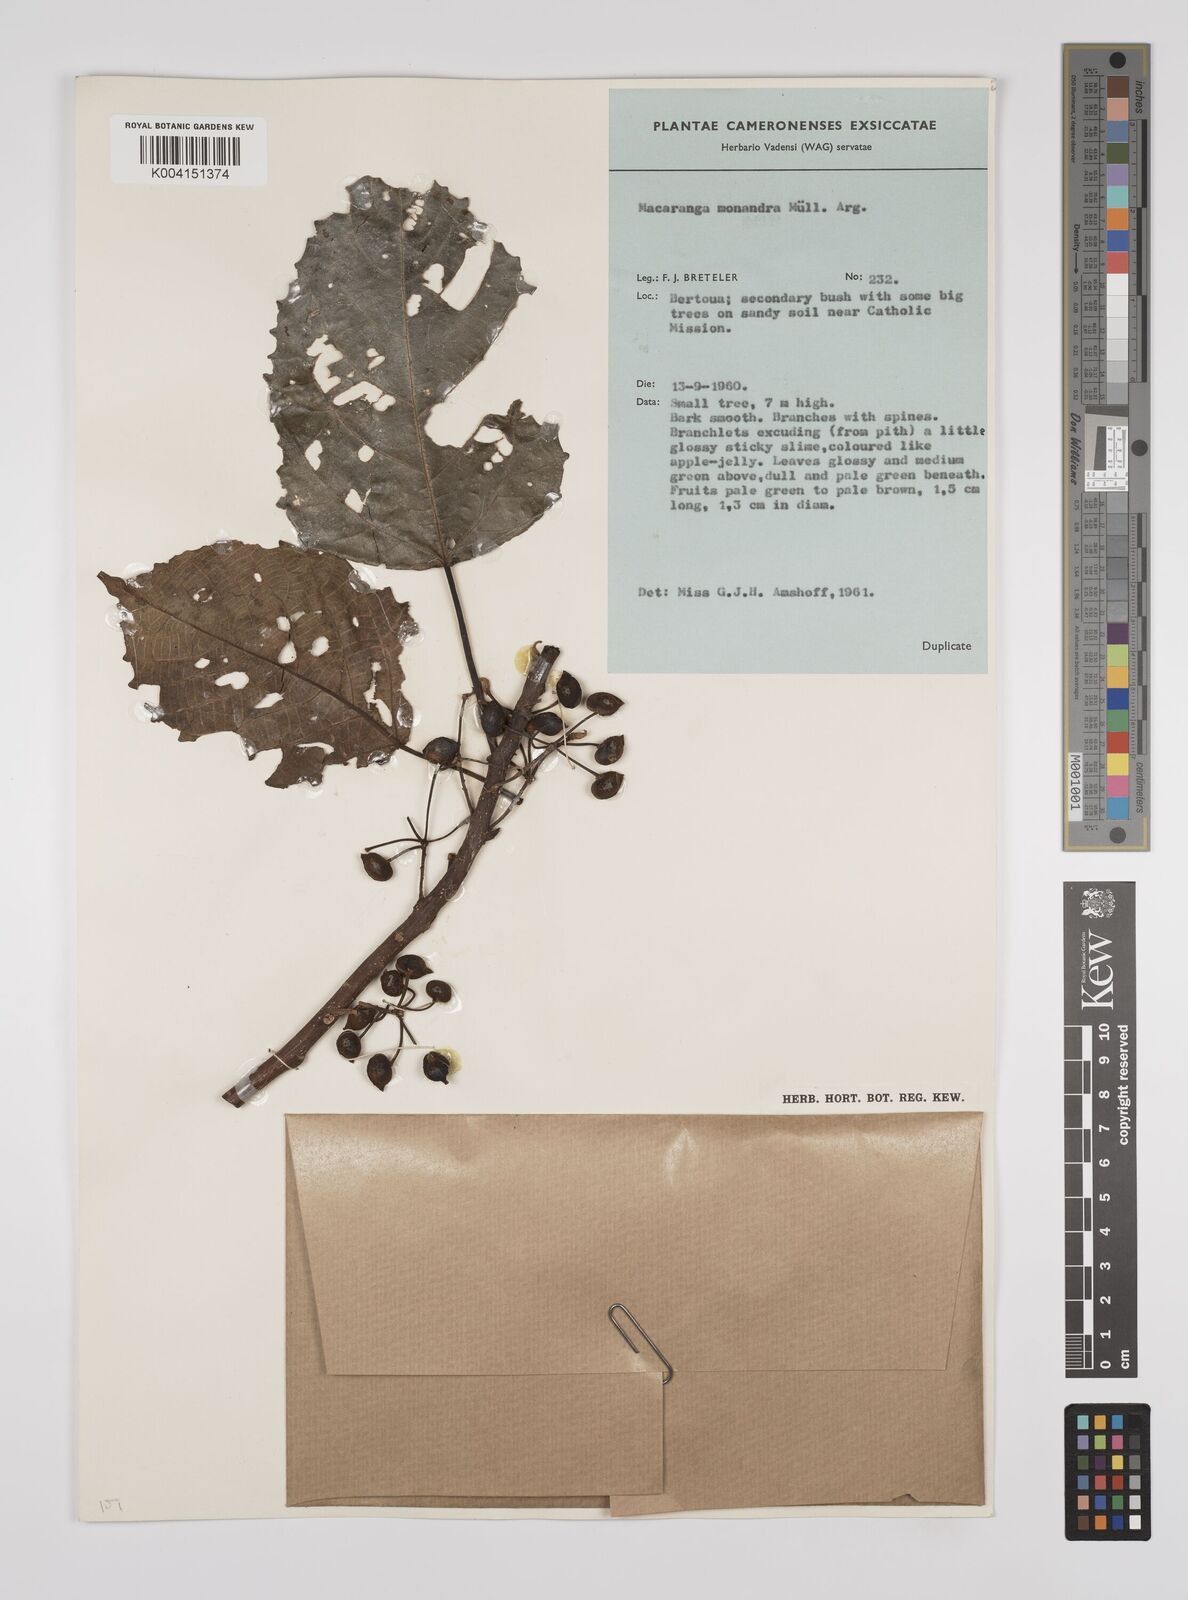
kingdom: Plantae
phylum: Tracheophyta
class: Magnoliopsida
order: Malpighiales
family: Euphorbiaceae
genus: Macaranga
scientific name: Macaranga monandra
